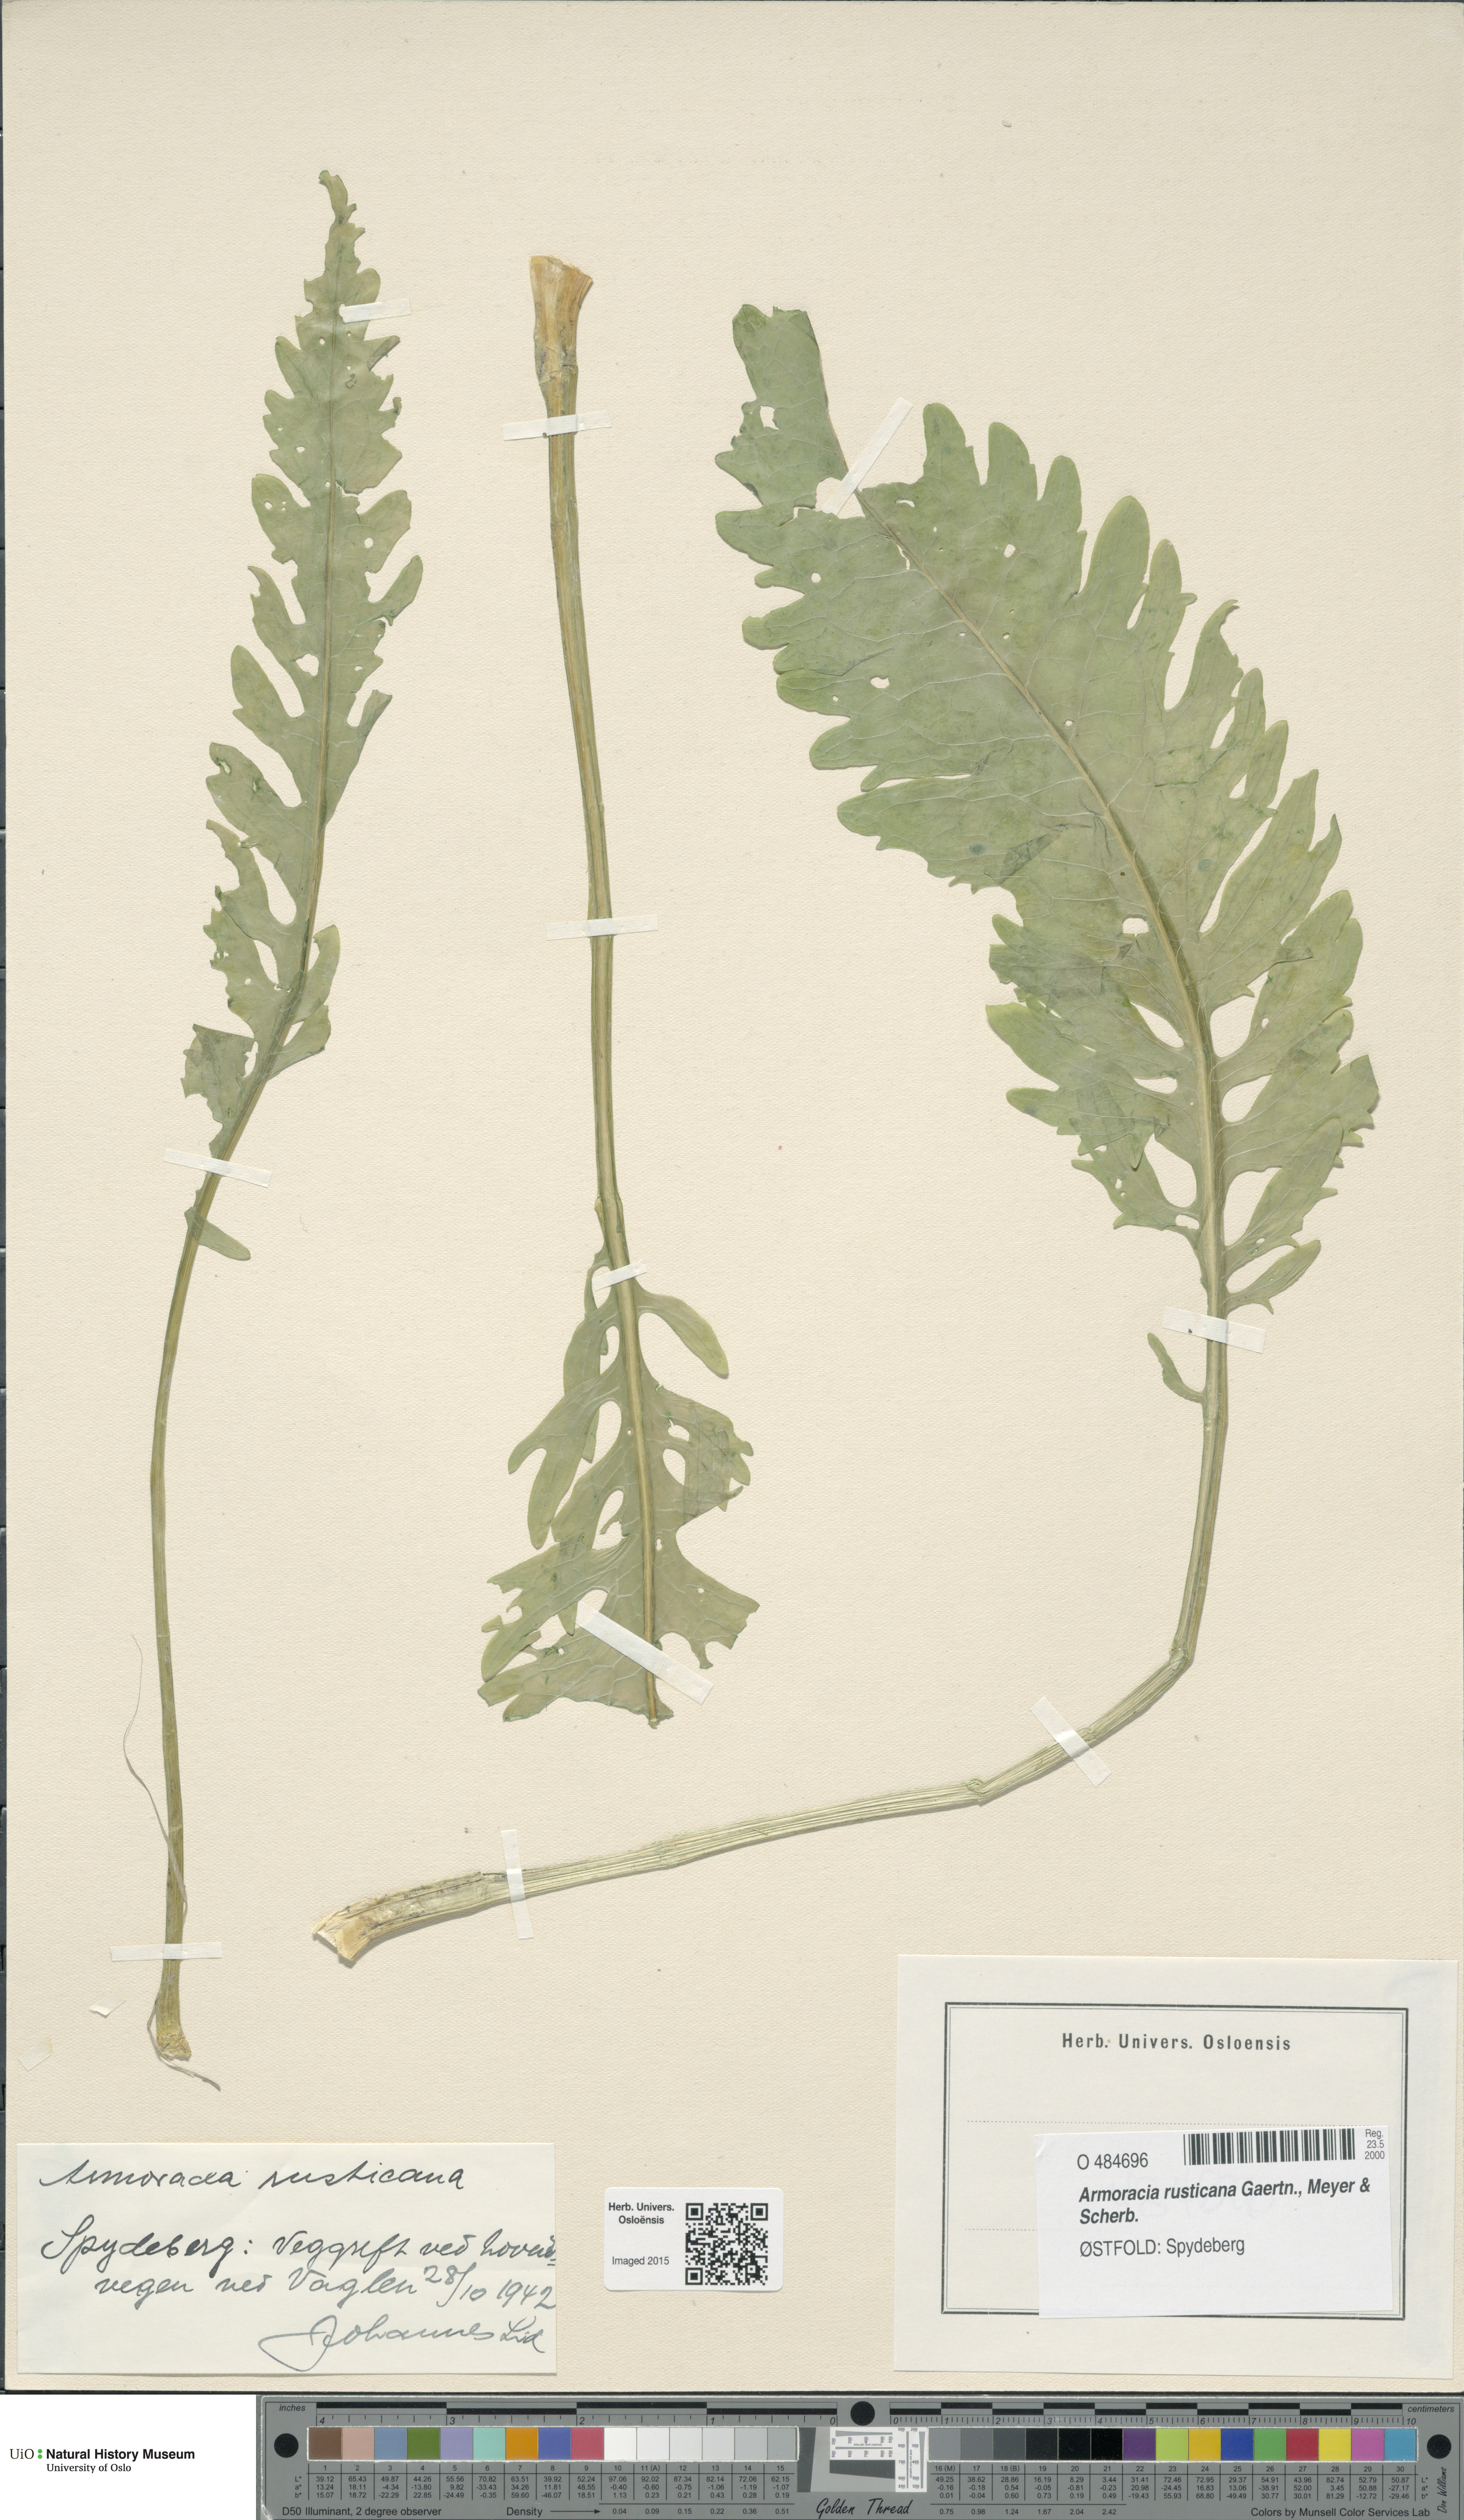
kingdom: Plantae
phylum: Tracheophyta
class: Magnoliopsida
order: Brassicales
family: Brassicaceae
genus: Armoracia
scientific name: Armoracia rusticana
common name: Horseradish
